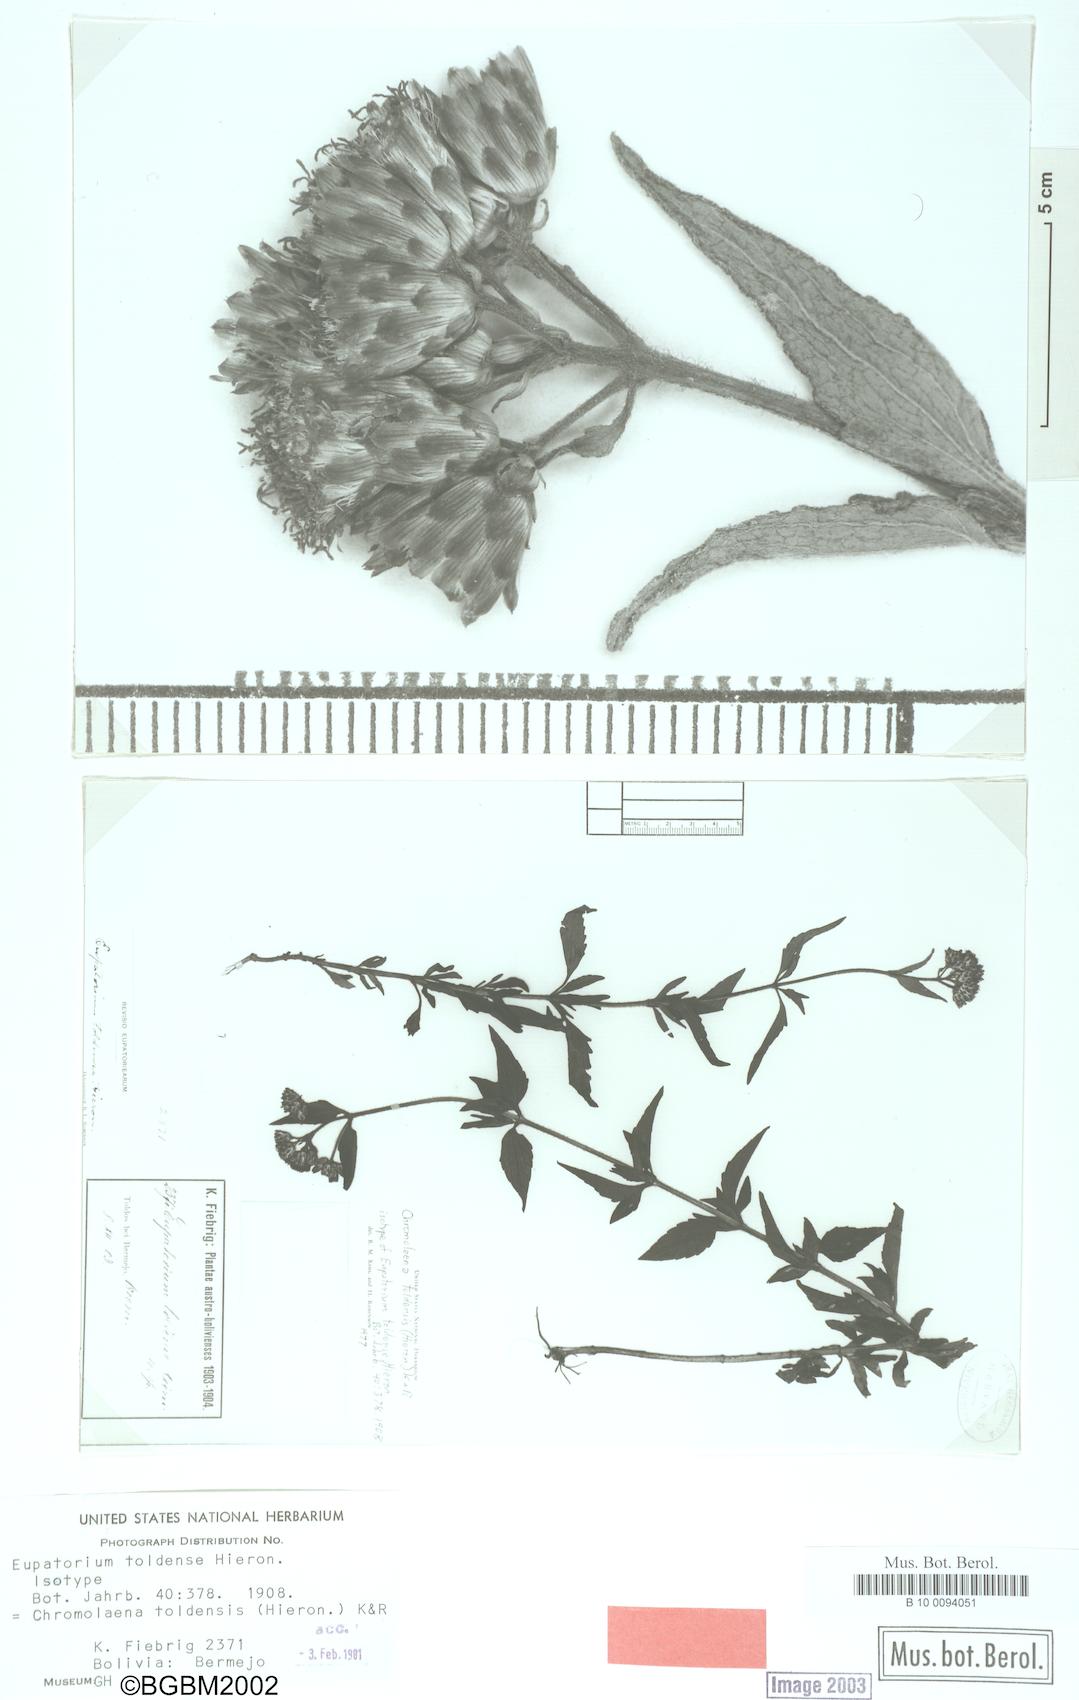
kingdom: Plantae
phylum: Tracheophyta
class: Magnoliopsida
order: Asterales
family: Asteraceae
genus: Chromolaena
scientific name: Chromolaena toldensis
